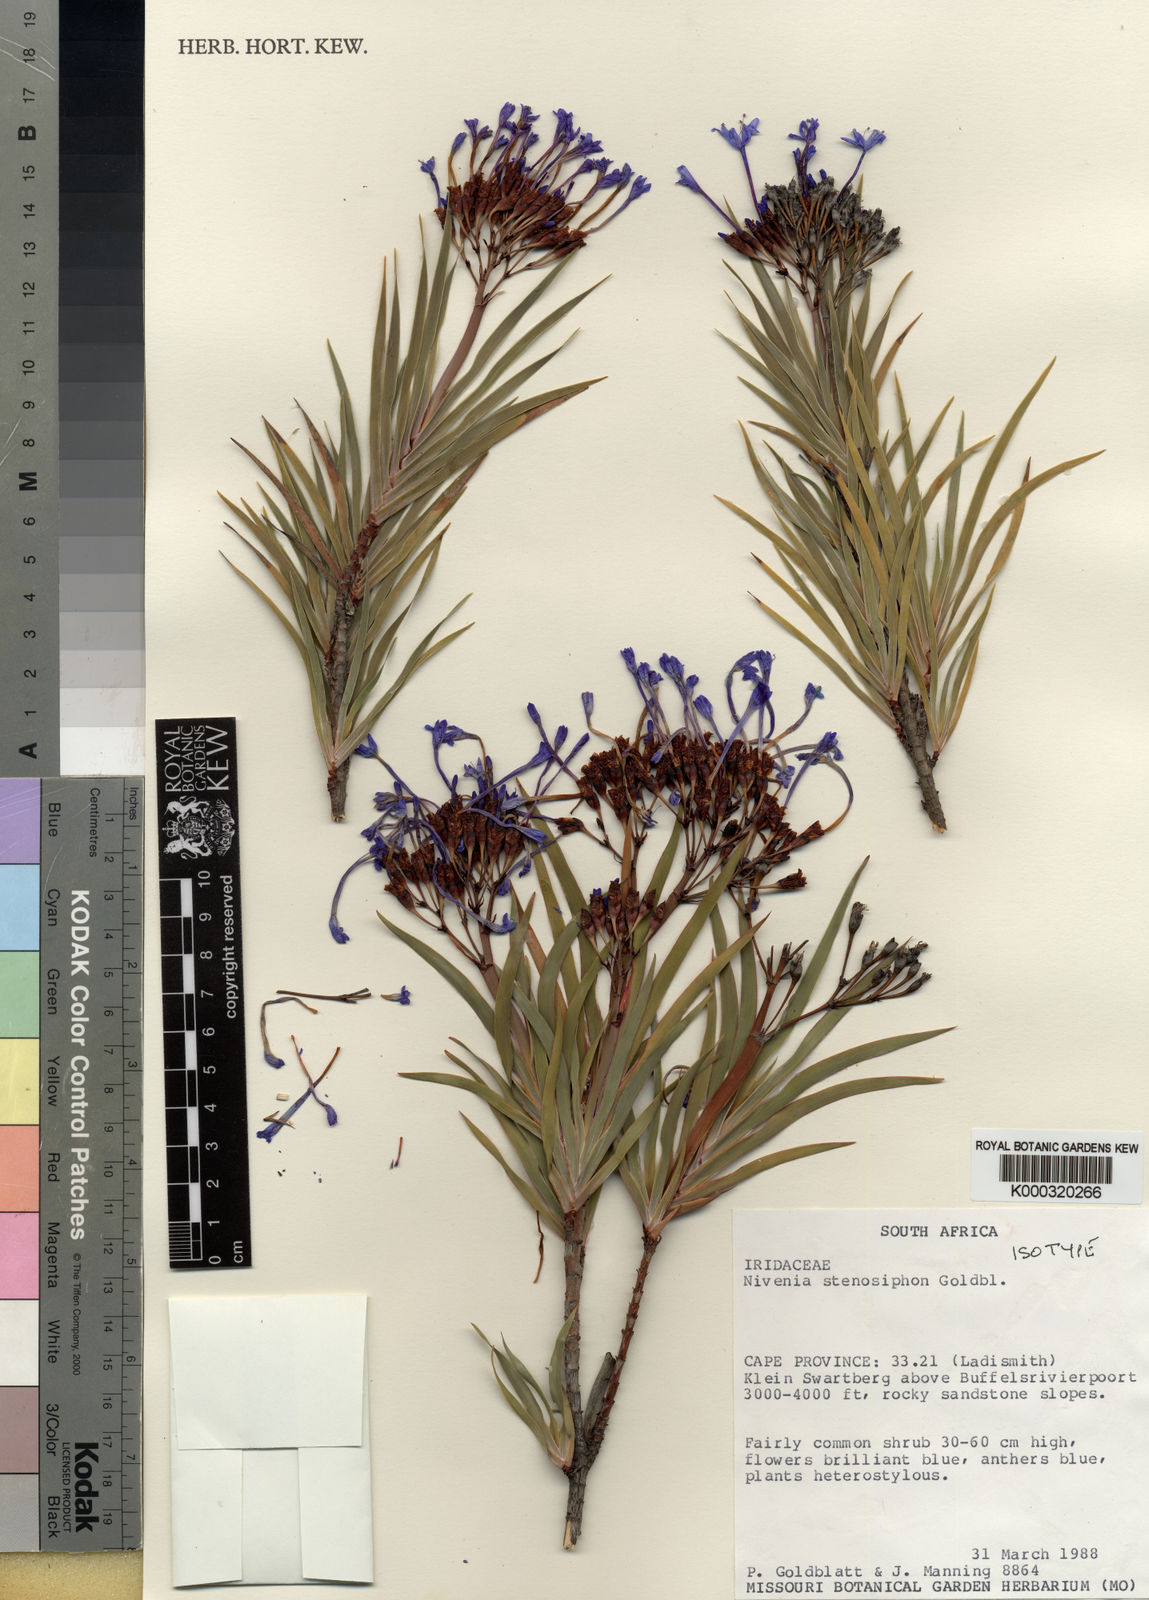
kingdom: Plantae
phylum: Tracheophyta
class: Liliopsida
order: Asparagales
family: Iridaceae
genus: Nivenia
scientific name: Nivenia stenosiphon
